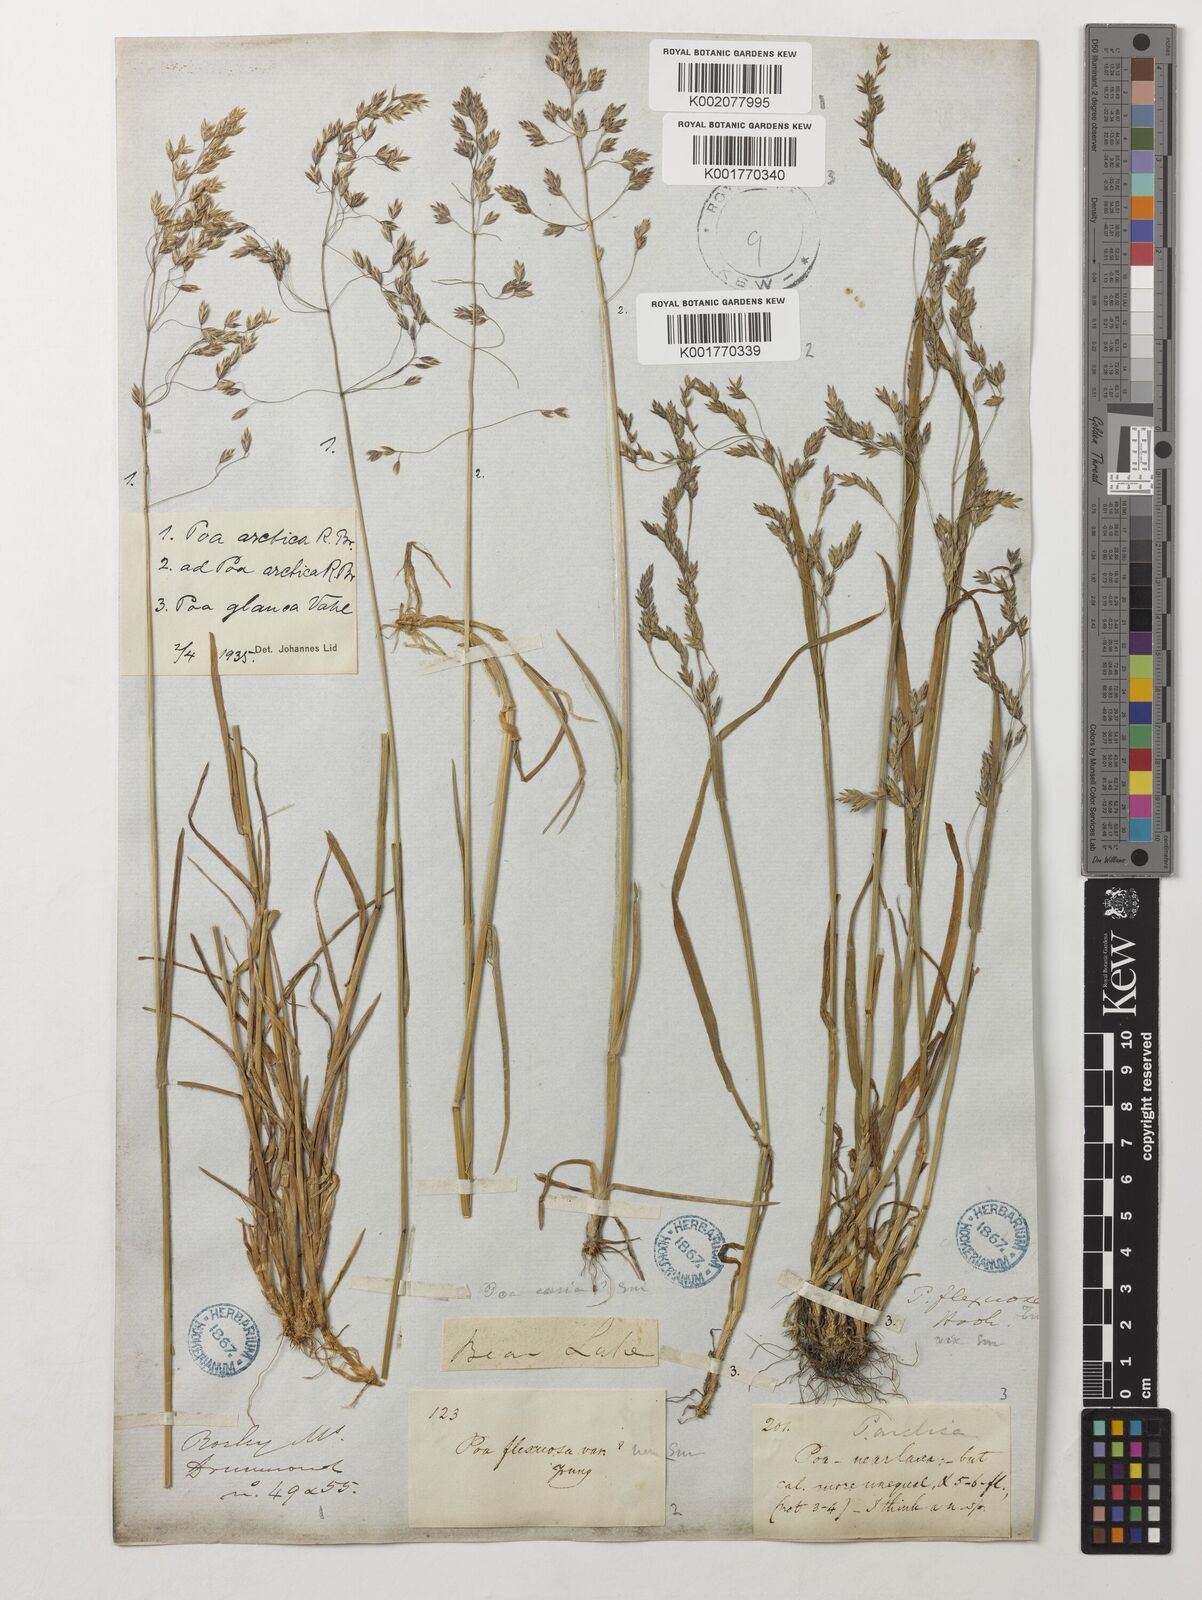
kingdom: Plantae
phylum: Tracheophyta
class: Liliopsida
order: Poales
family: Poaceae
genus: Poa
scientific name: Poa glauca
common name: Glaucous bluegrass
